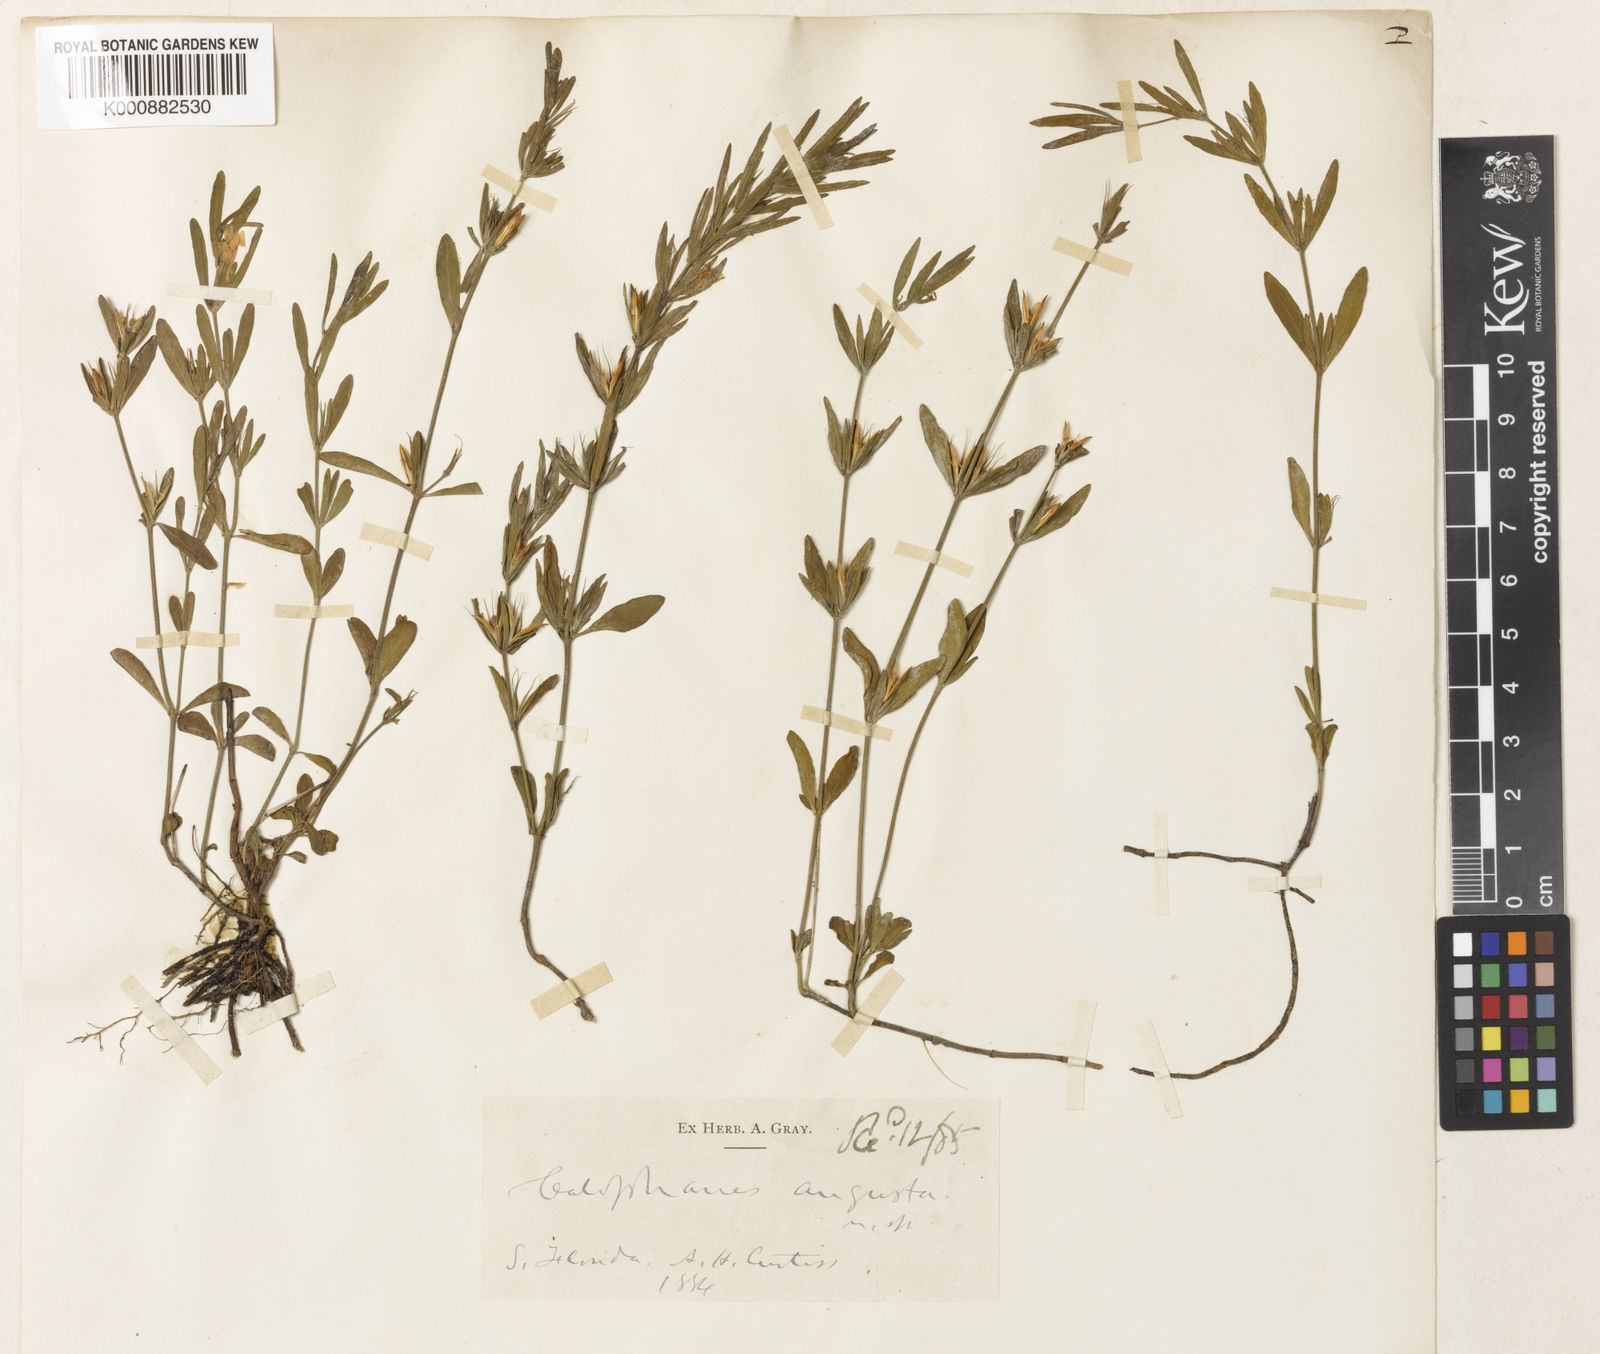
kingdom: Plantae
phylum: Tracheophyta
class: Magnoliopsida
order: Lamiales
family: Acanthaceae
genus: Dyschoriste
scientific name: Dyschoriste angusta
